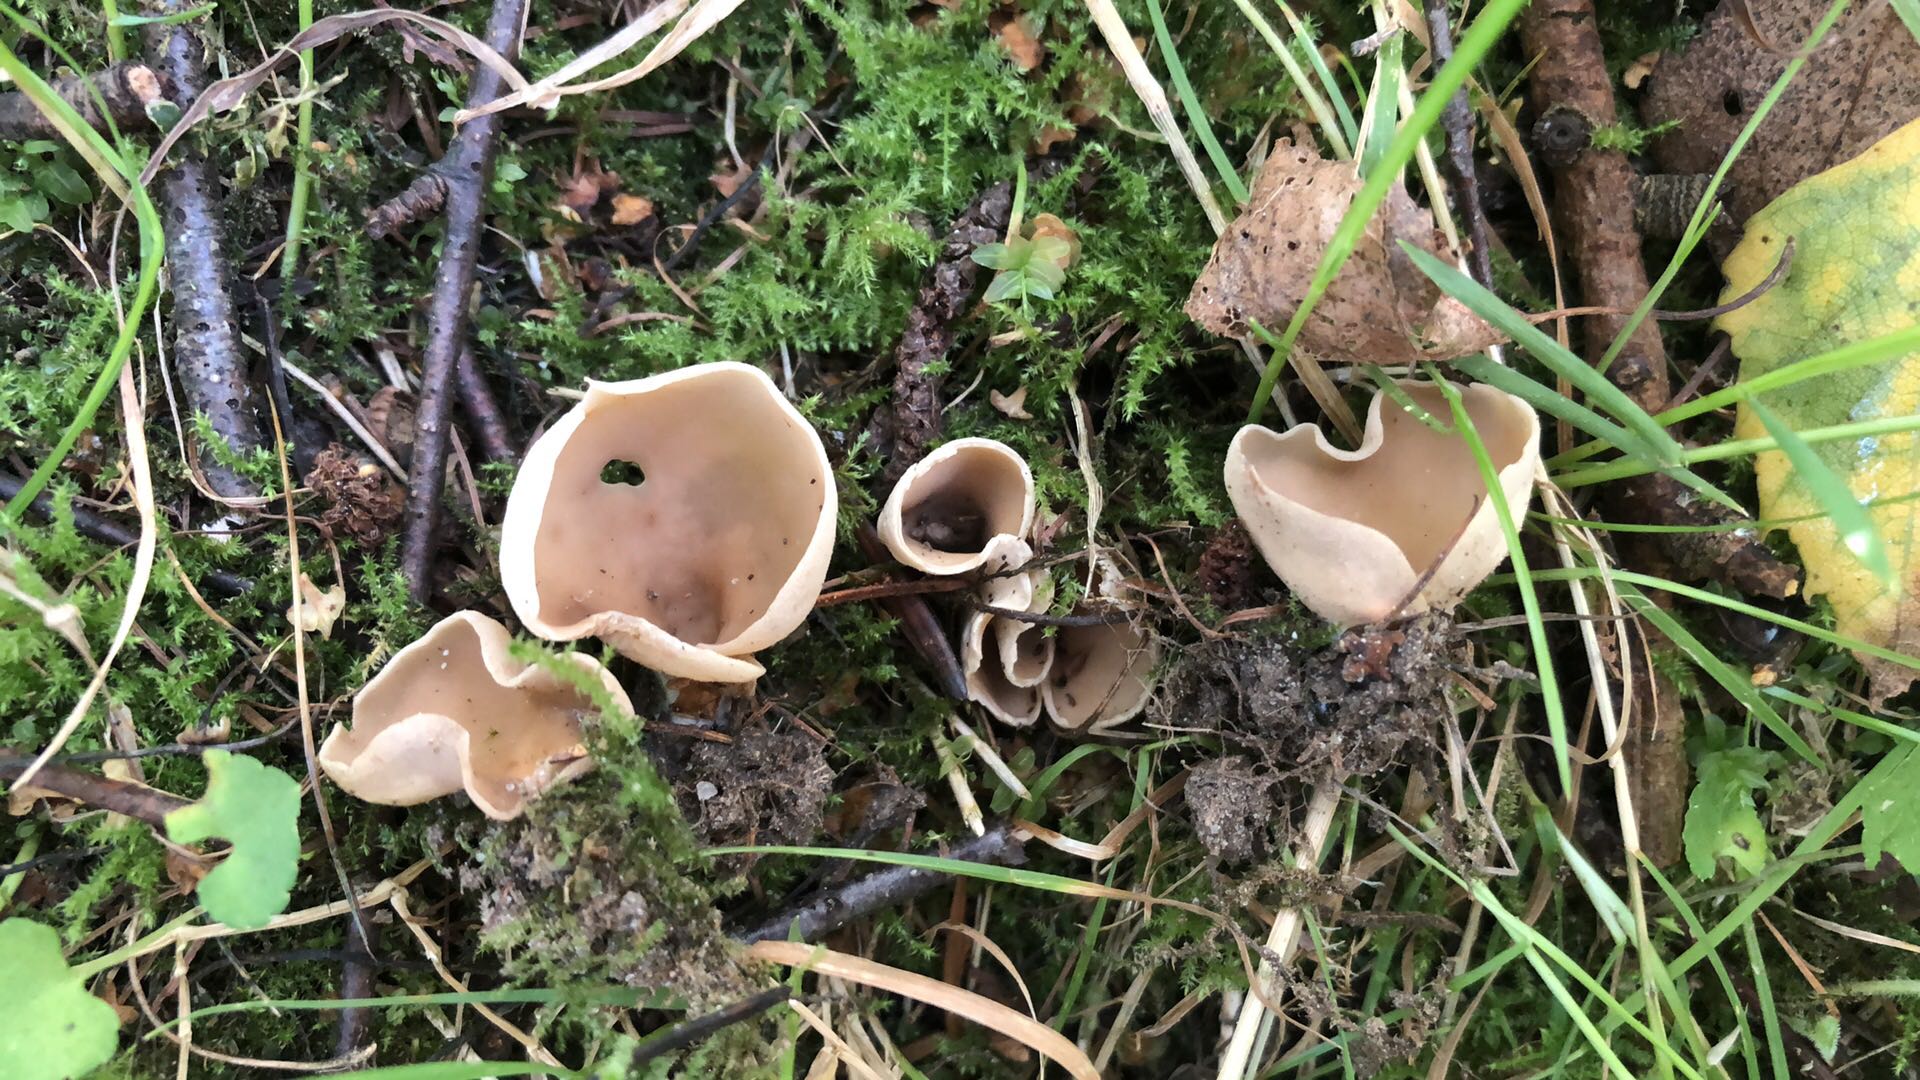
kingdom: Fungi
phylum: Ascomycota
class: Pezizomycetes
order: Pezizales
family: Otideaceae
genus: Otidea
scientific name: Otidea alutacea
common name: læder-ørebæger
